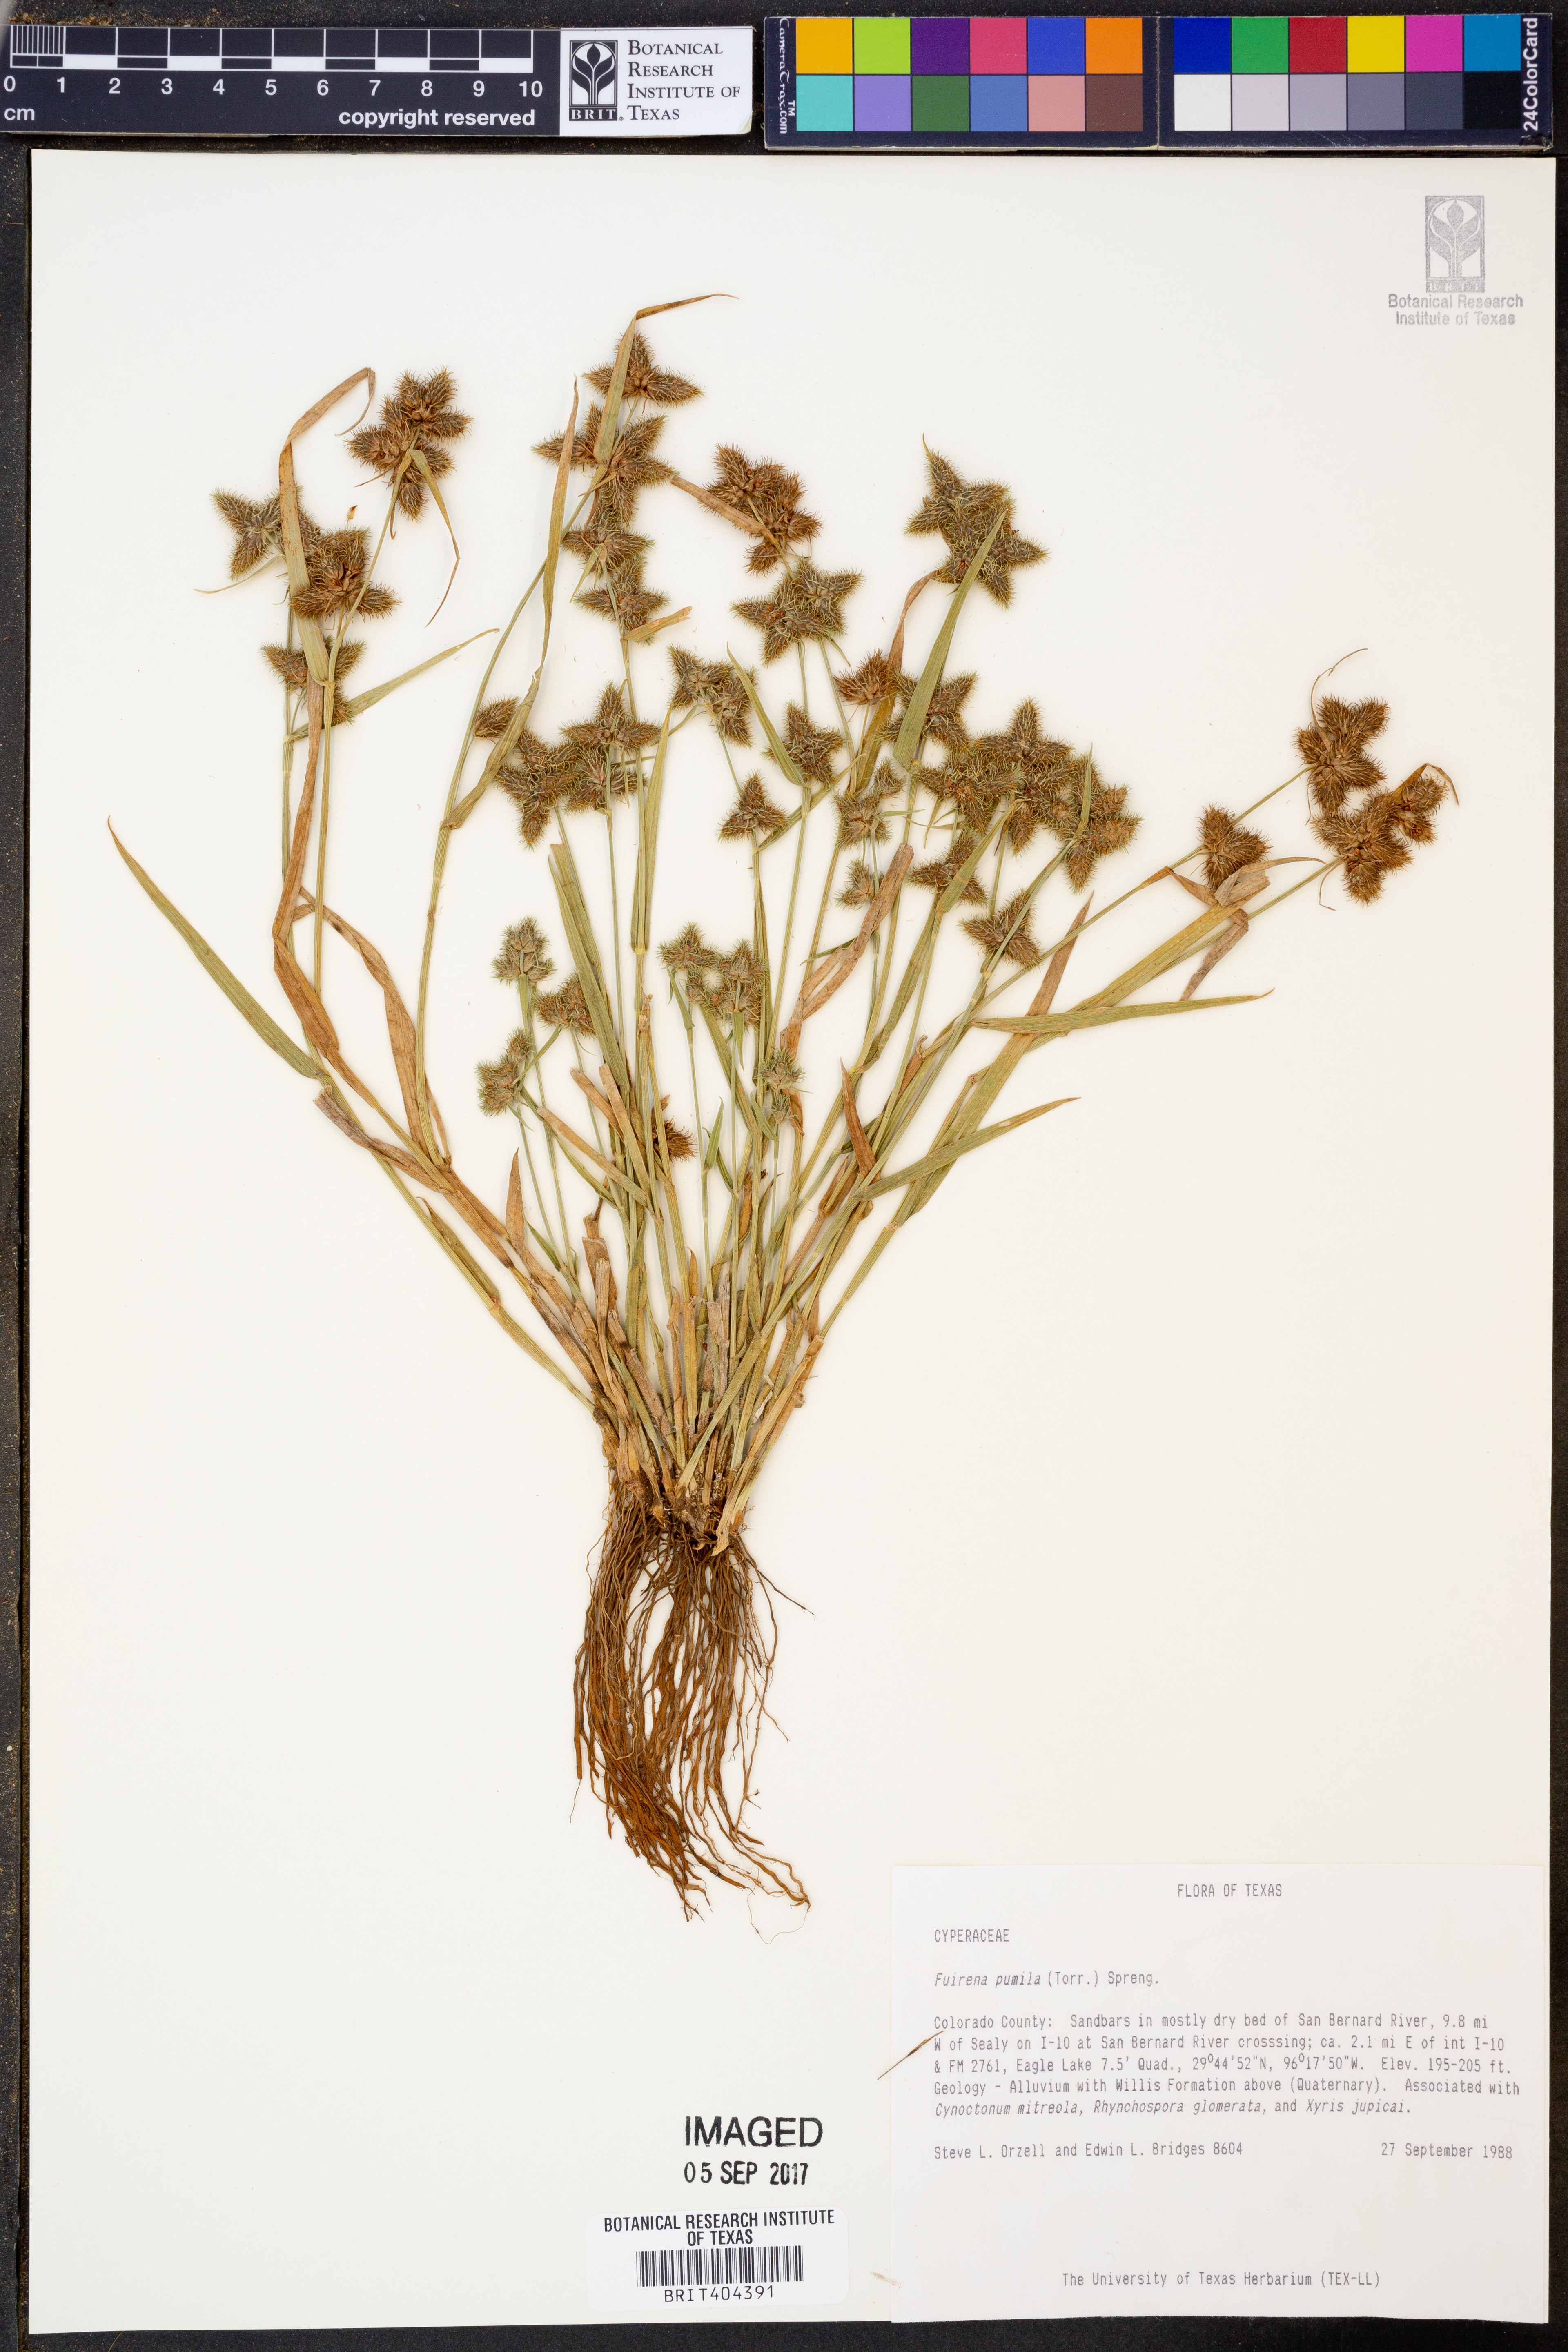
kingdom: Plantae
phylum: Tracheophyta
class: Liliopsida
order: Poales
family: Cyperaceae
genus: Fuirena
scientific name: Fuirena pumila
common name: Dwarf umbrella sedge
